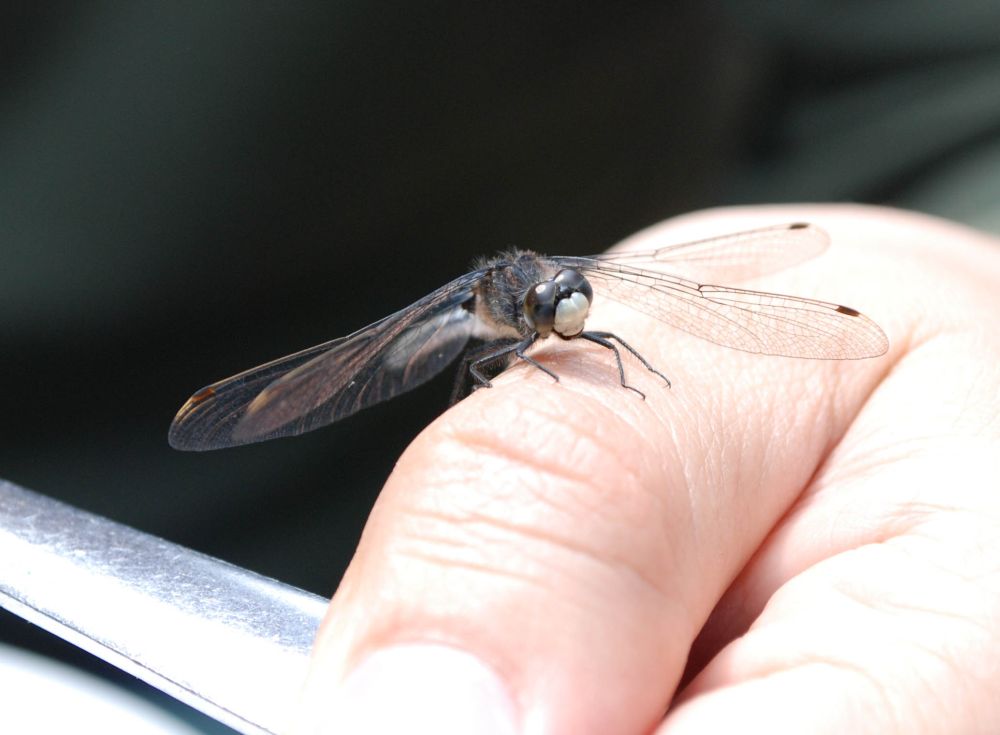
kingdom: Animalia
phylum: Arthropoda
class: Insecta
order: Odonata
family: Libellulidae
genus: Leucorrhinia
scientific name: Leucorrhinia frigida
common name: Frosted whiteface
